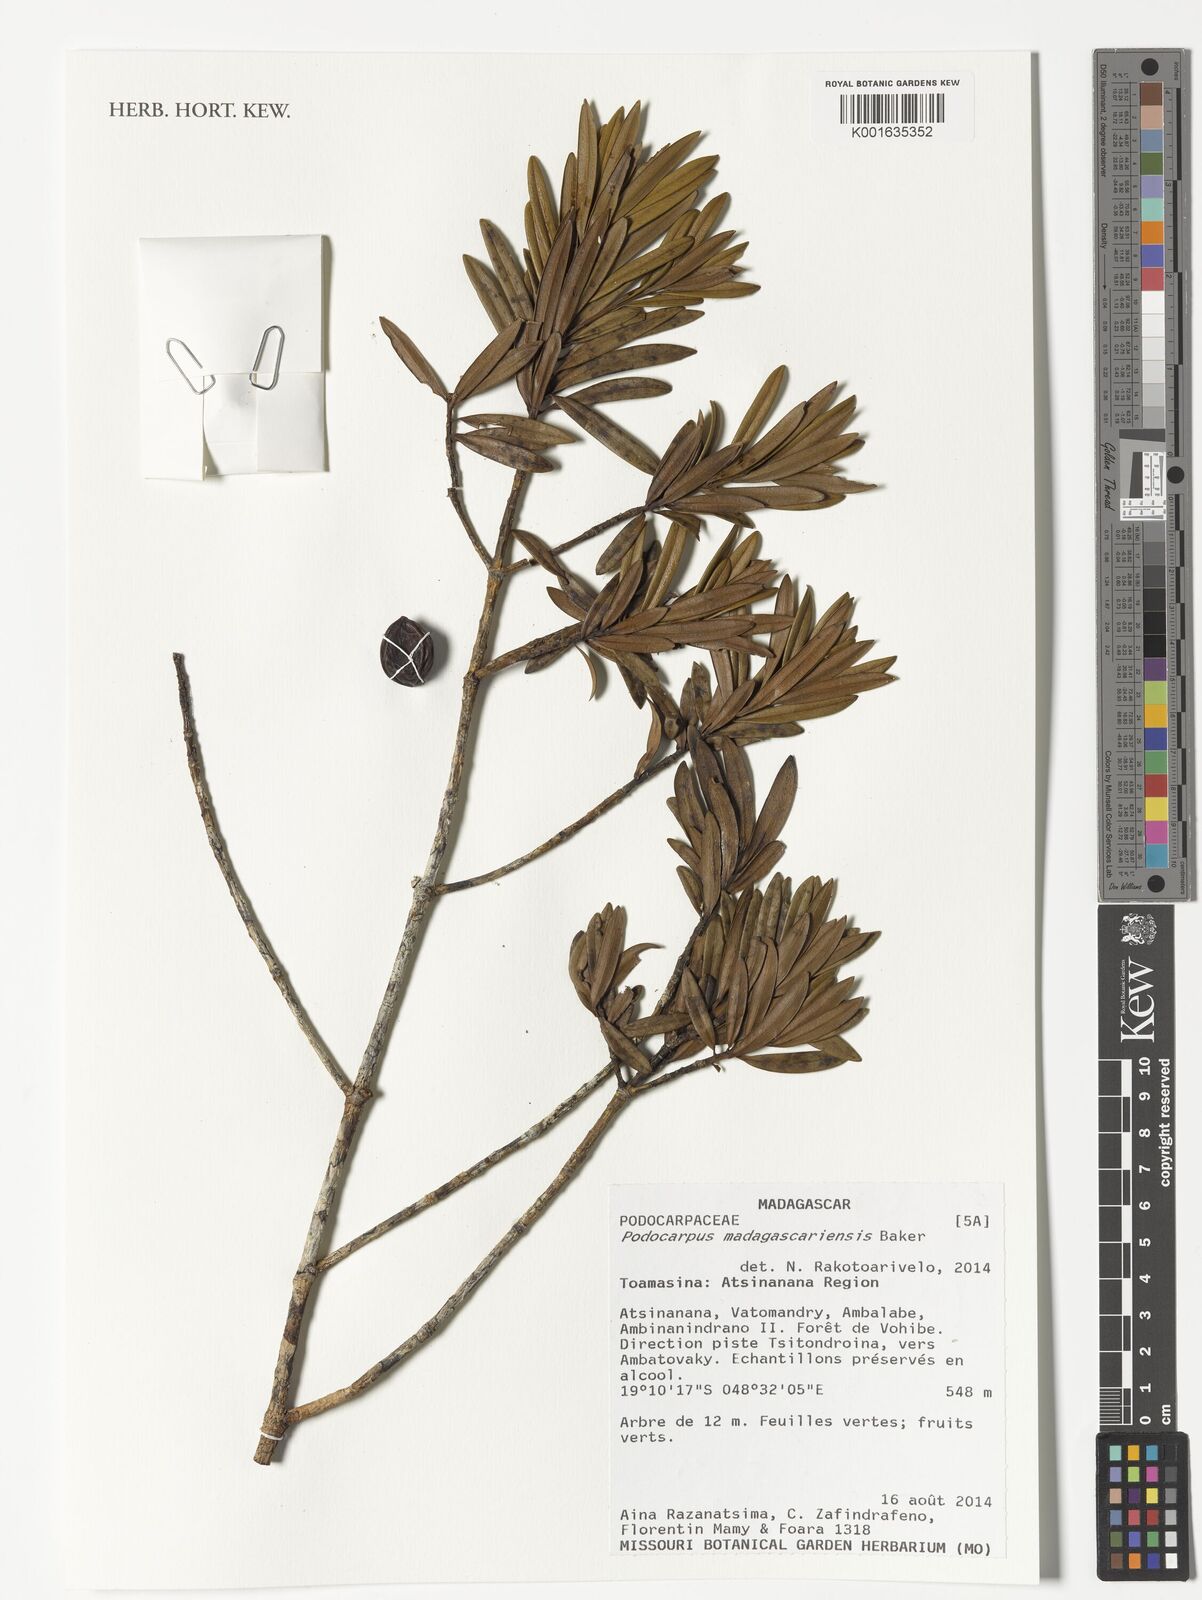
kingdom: Plantae
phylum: Tracheophyta
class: Pinopsida
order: Pinales
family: Podocarpaceae
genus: Podocarpus
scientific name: Podocarpus madagascariensis
